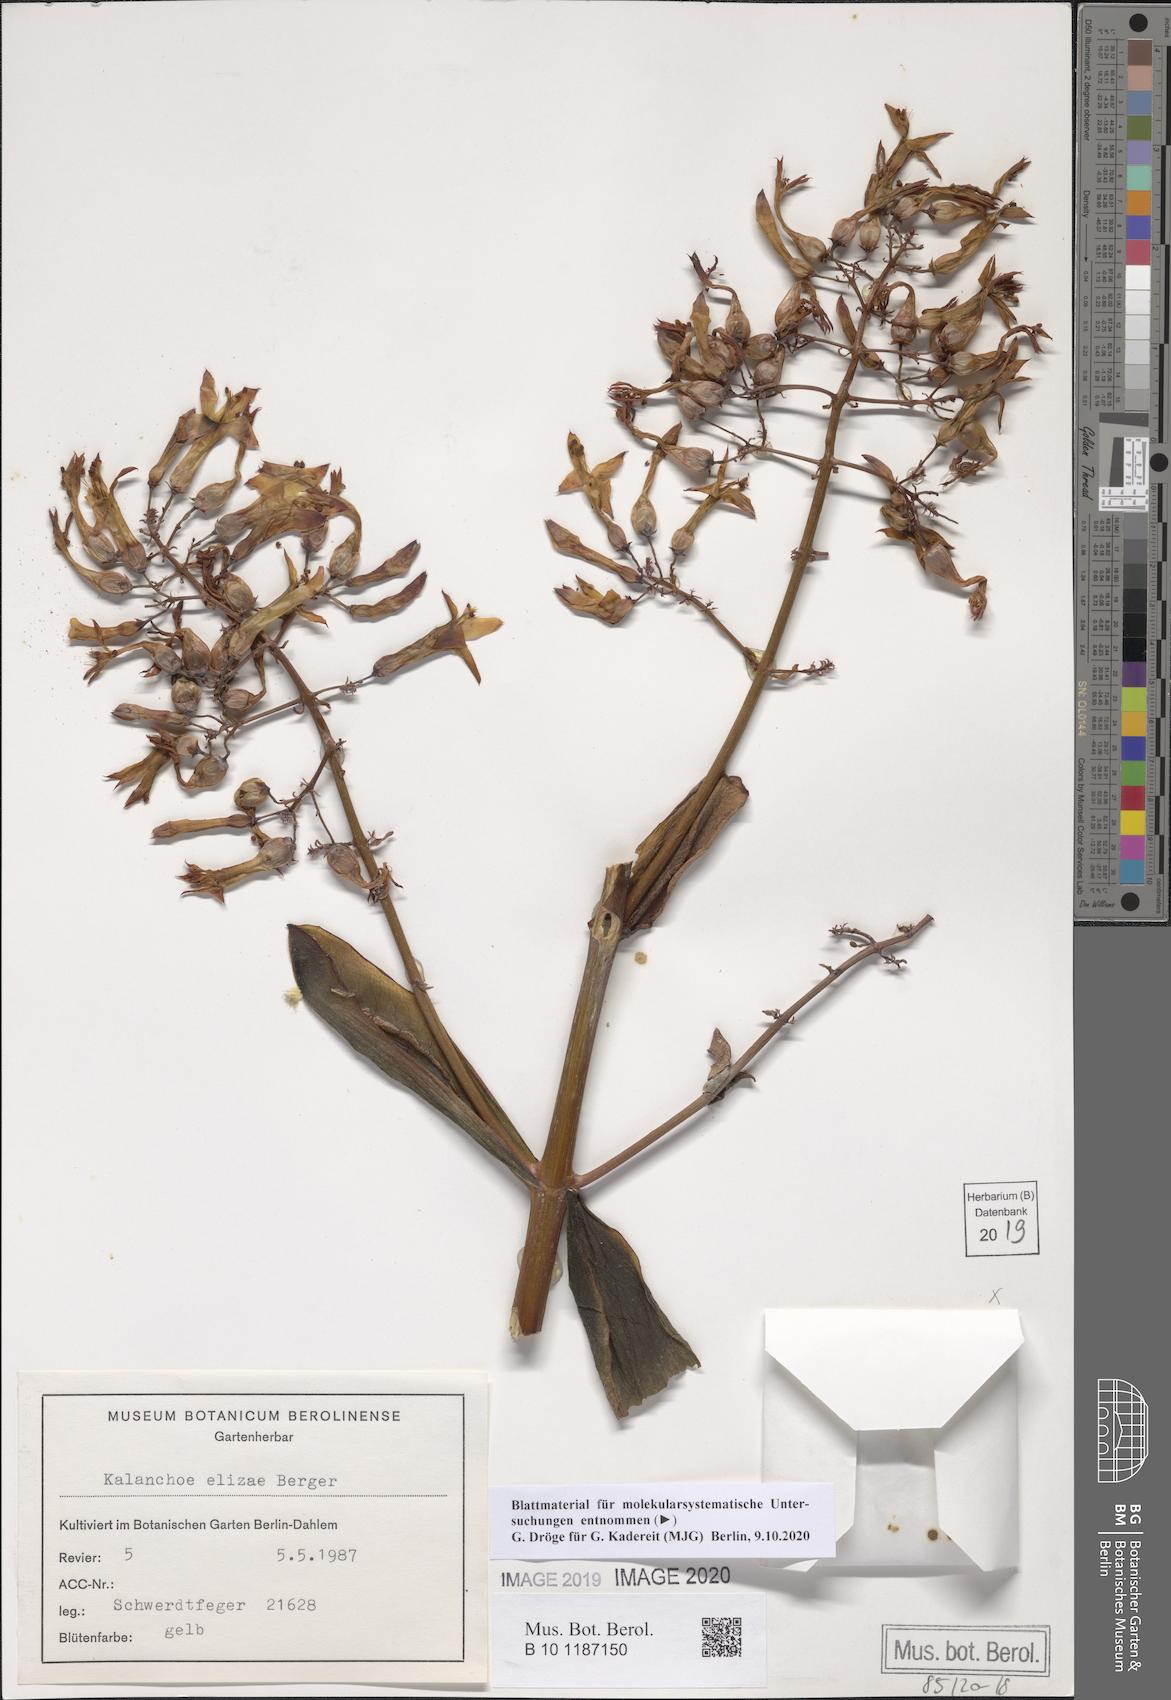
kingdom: Plantae
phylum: Tracheophyta
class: Magnoliopsida
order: Saxifragales
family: Crassulaceae
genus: Kalanchoe
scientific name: Kalanchoe elizae
